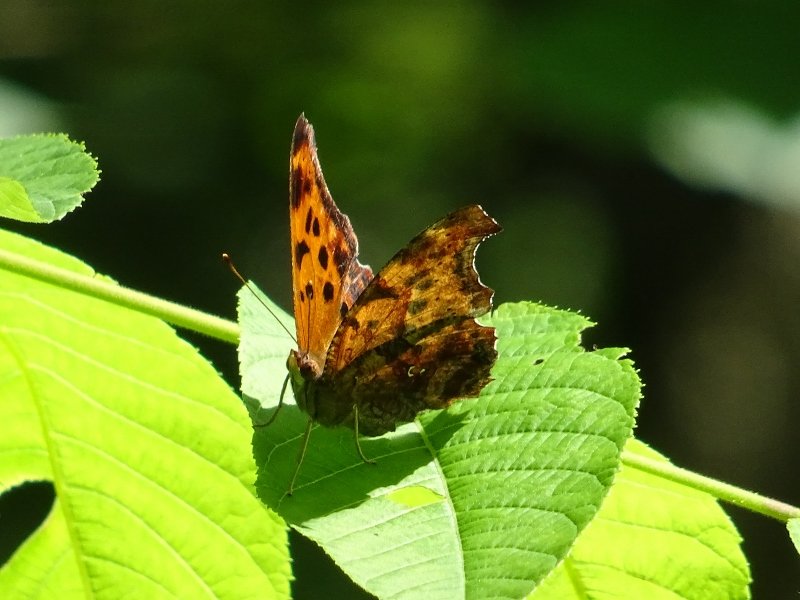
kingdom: Animalia
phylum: Arthropoda
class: Insecta
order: Lepidoptera
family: Nymphalidae
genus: Polygonia
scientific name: Polygonia interrogationis
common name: Question Mark
